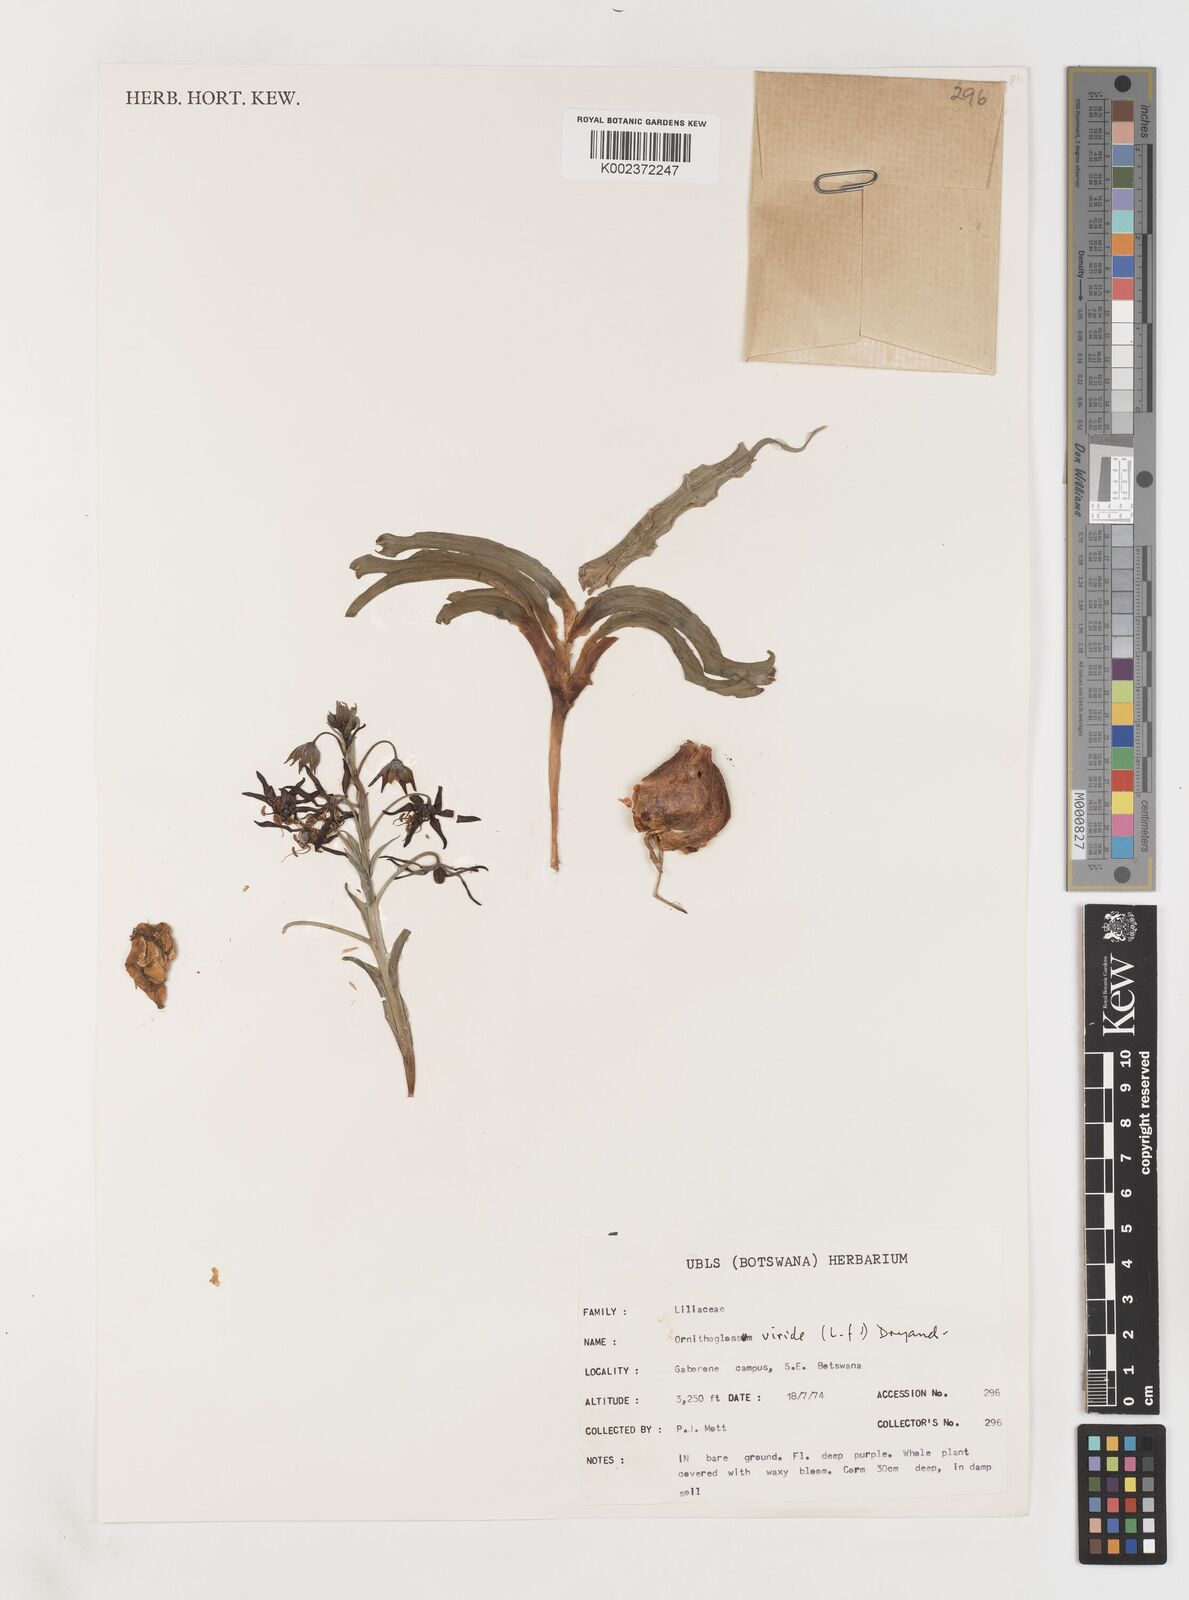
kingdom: Plantae
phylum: Tracheophyta
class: Liliopsida
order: Liliales
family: Colchicaceae
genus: Ornithoglossum
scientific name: Ornithoglossum vulgare
